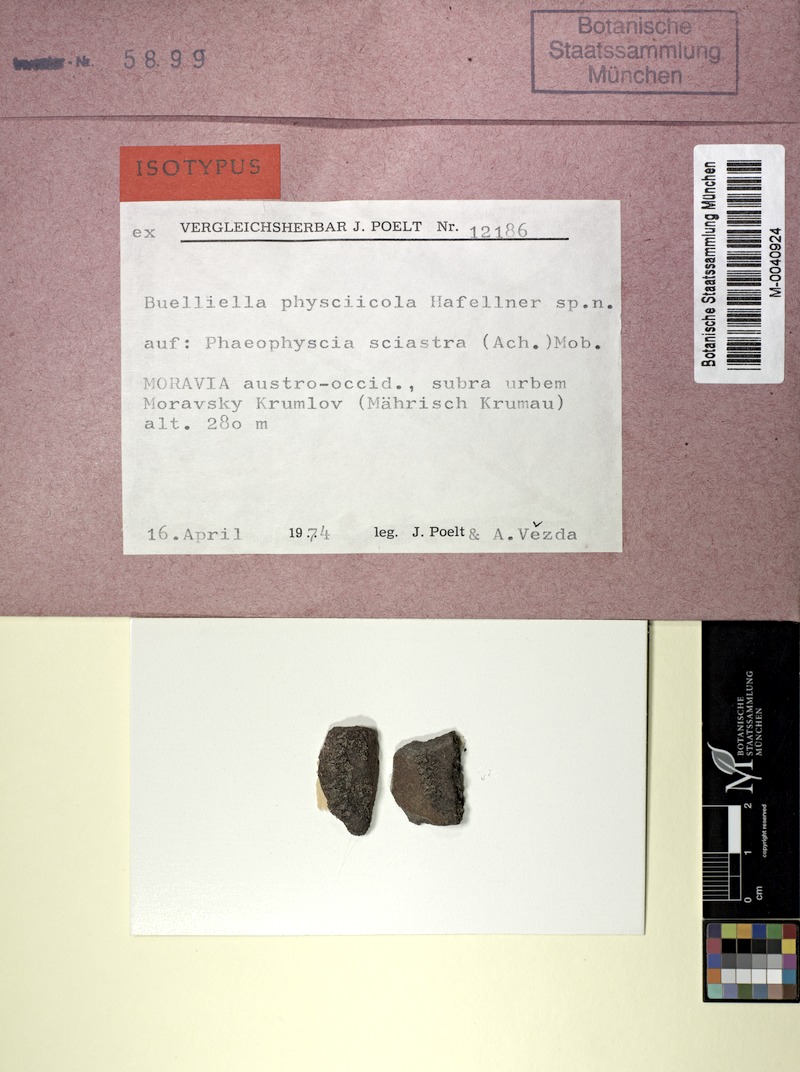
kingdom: Fungi
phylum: Ascomycota
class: Lecanoromycetes
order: Caliciales
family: Physciaceae
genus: Phaeophyscia
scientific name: Phaeophyscia sciastra
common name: Dark shadow lichen
